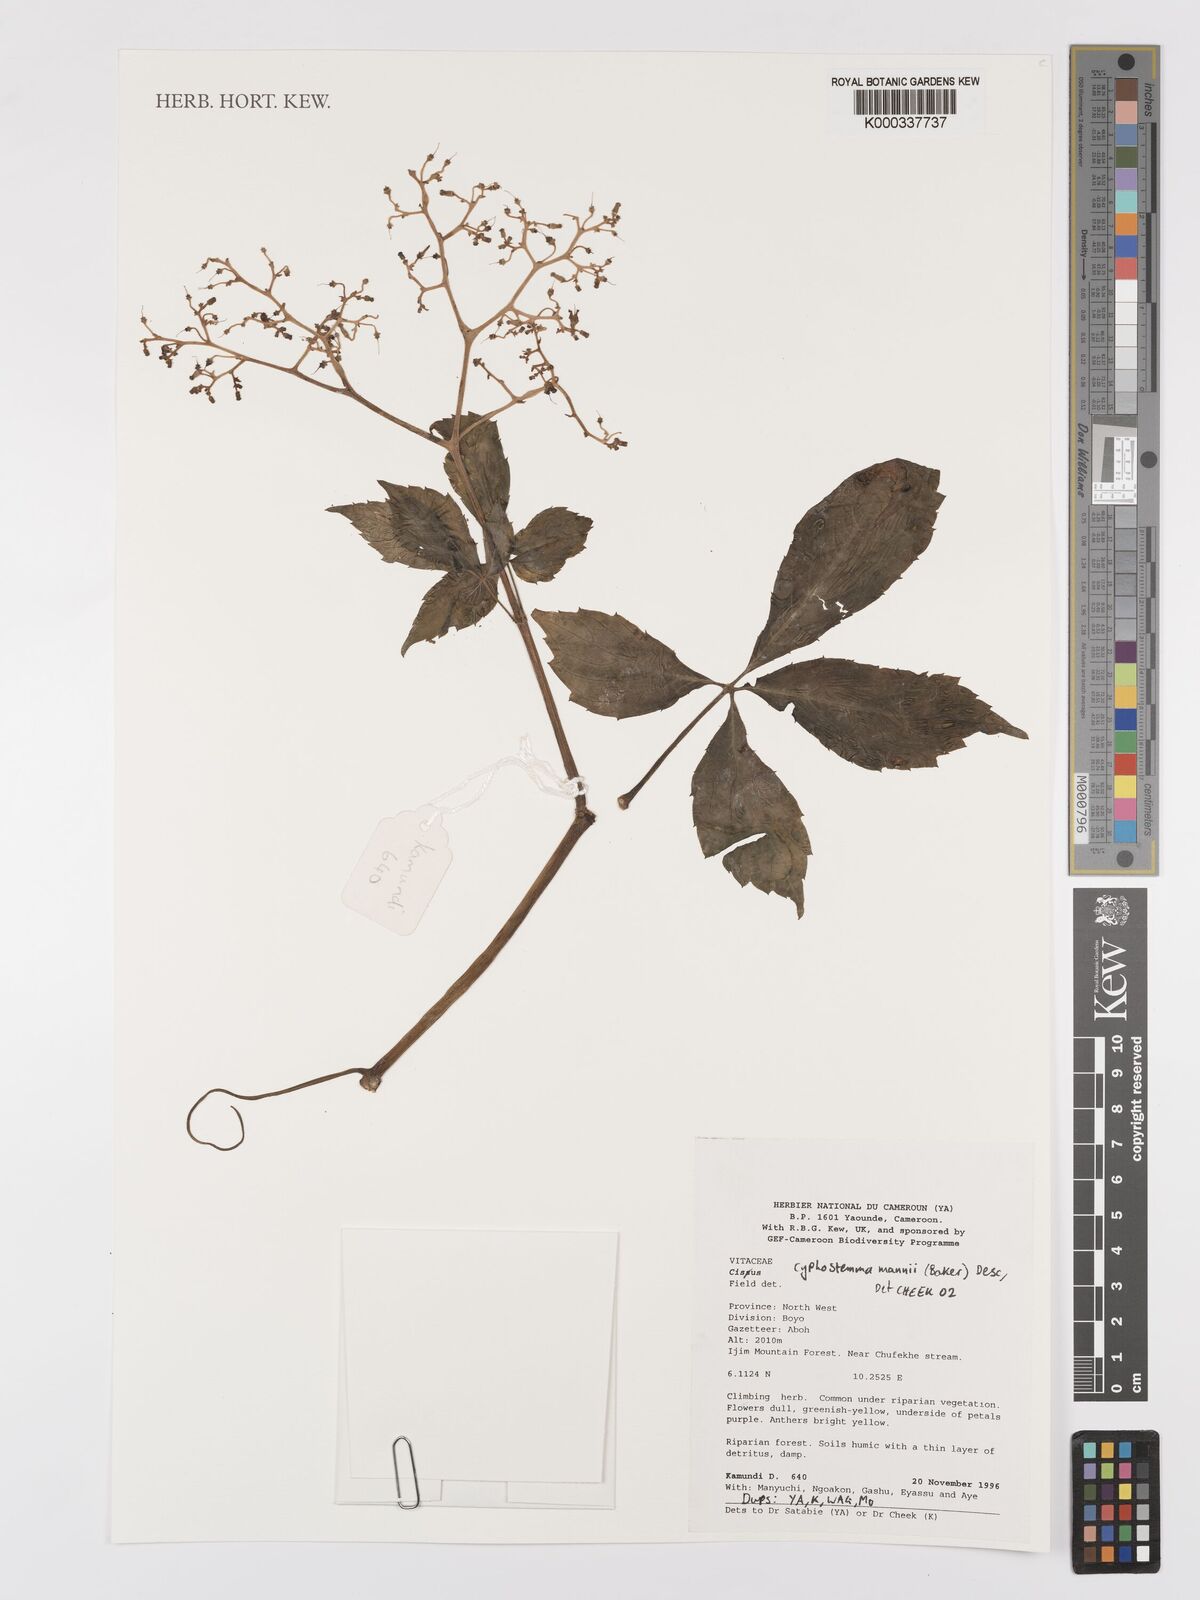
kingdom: Plantae
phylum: Tracheophyta
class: Magnoliopsida
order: Vitales
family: Vitaceae
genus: Cyphostemma
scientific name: Cyphostemma mannii
